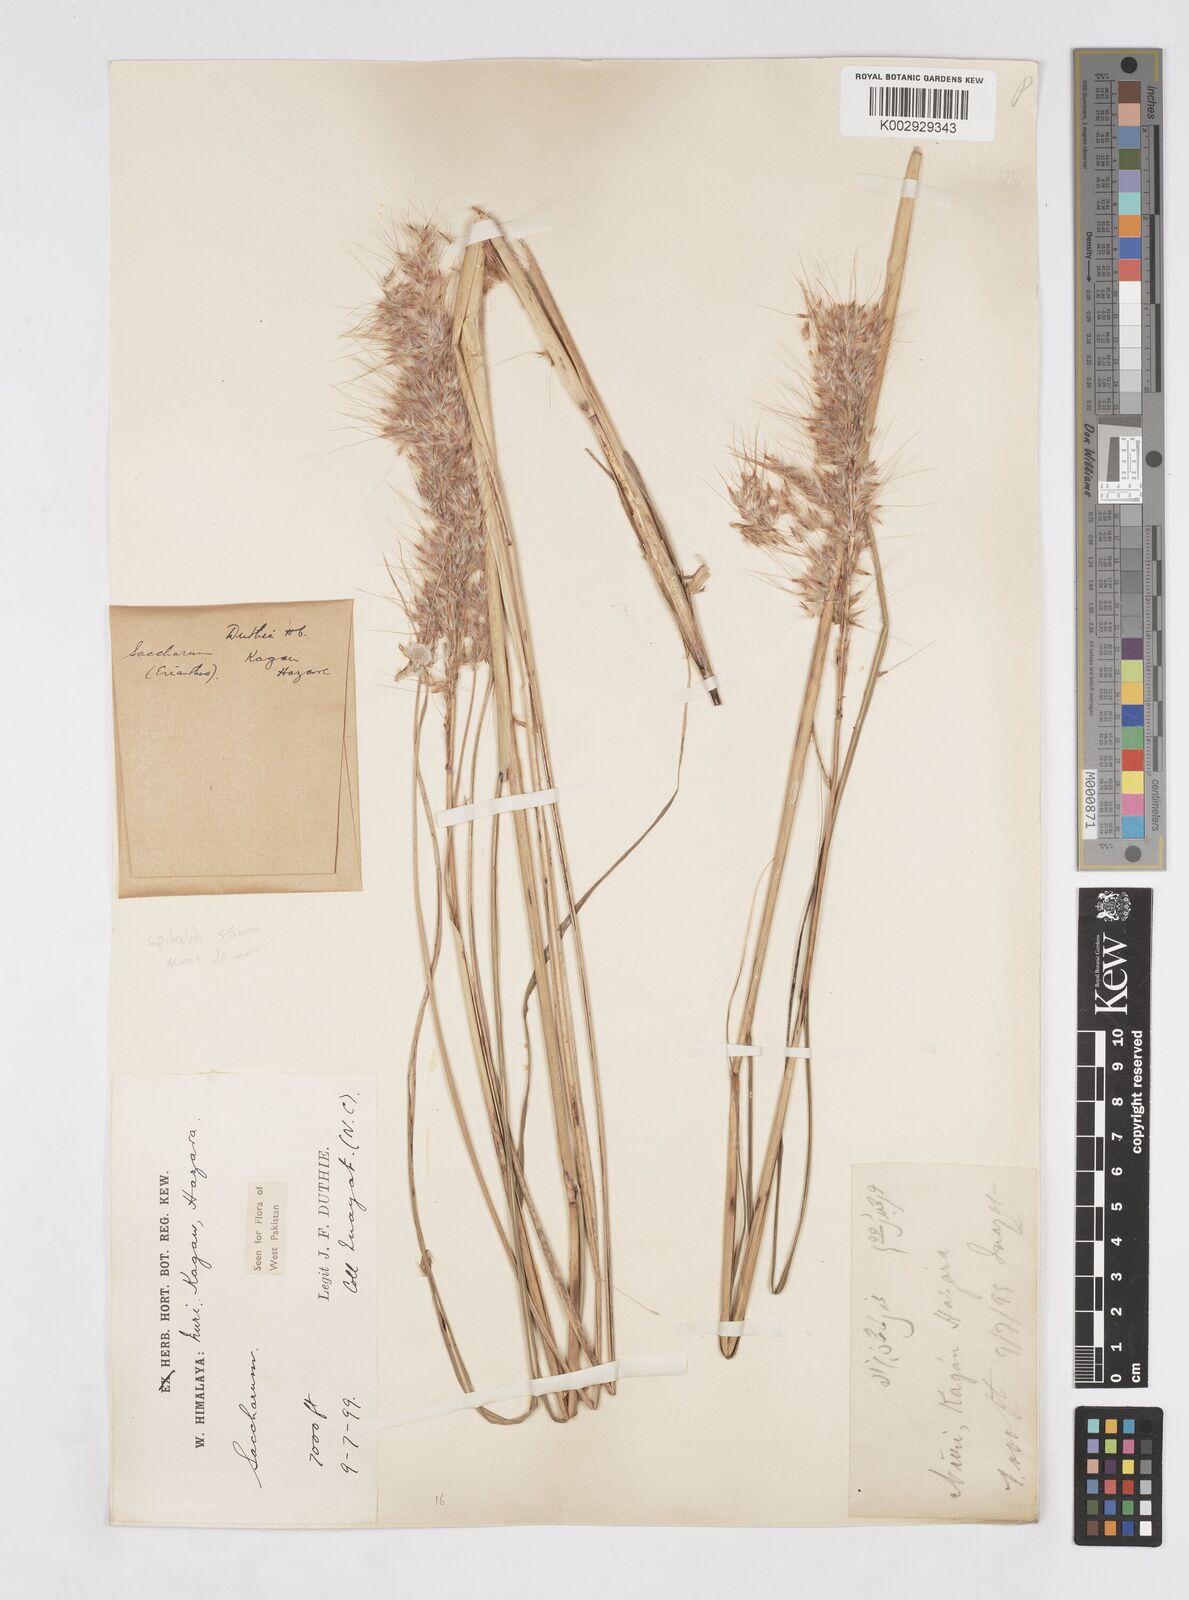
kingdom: Plantae
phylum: Tracheophyta
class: Liliopsida
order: Poales
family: Poaceae
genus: Saccharum
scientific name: Saccharum filifolium
